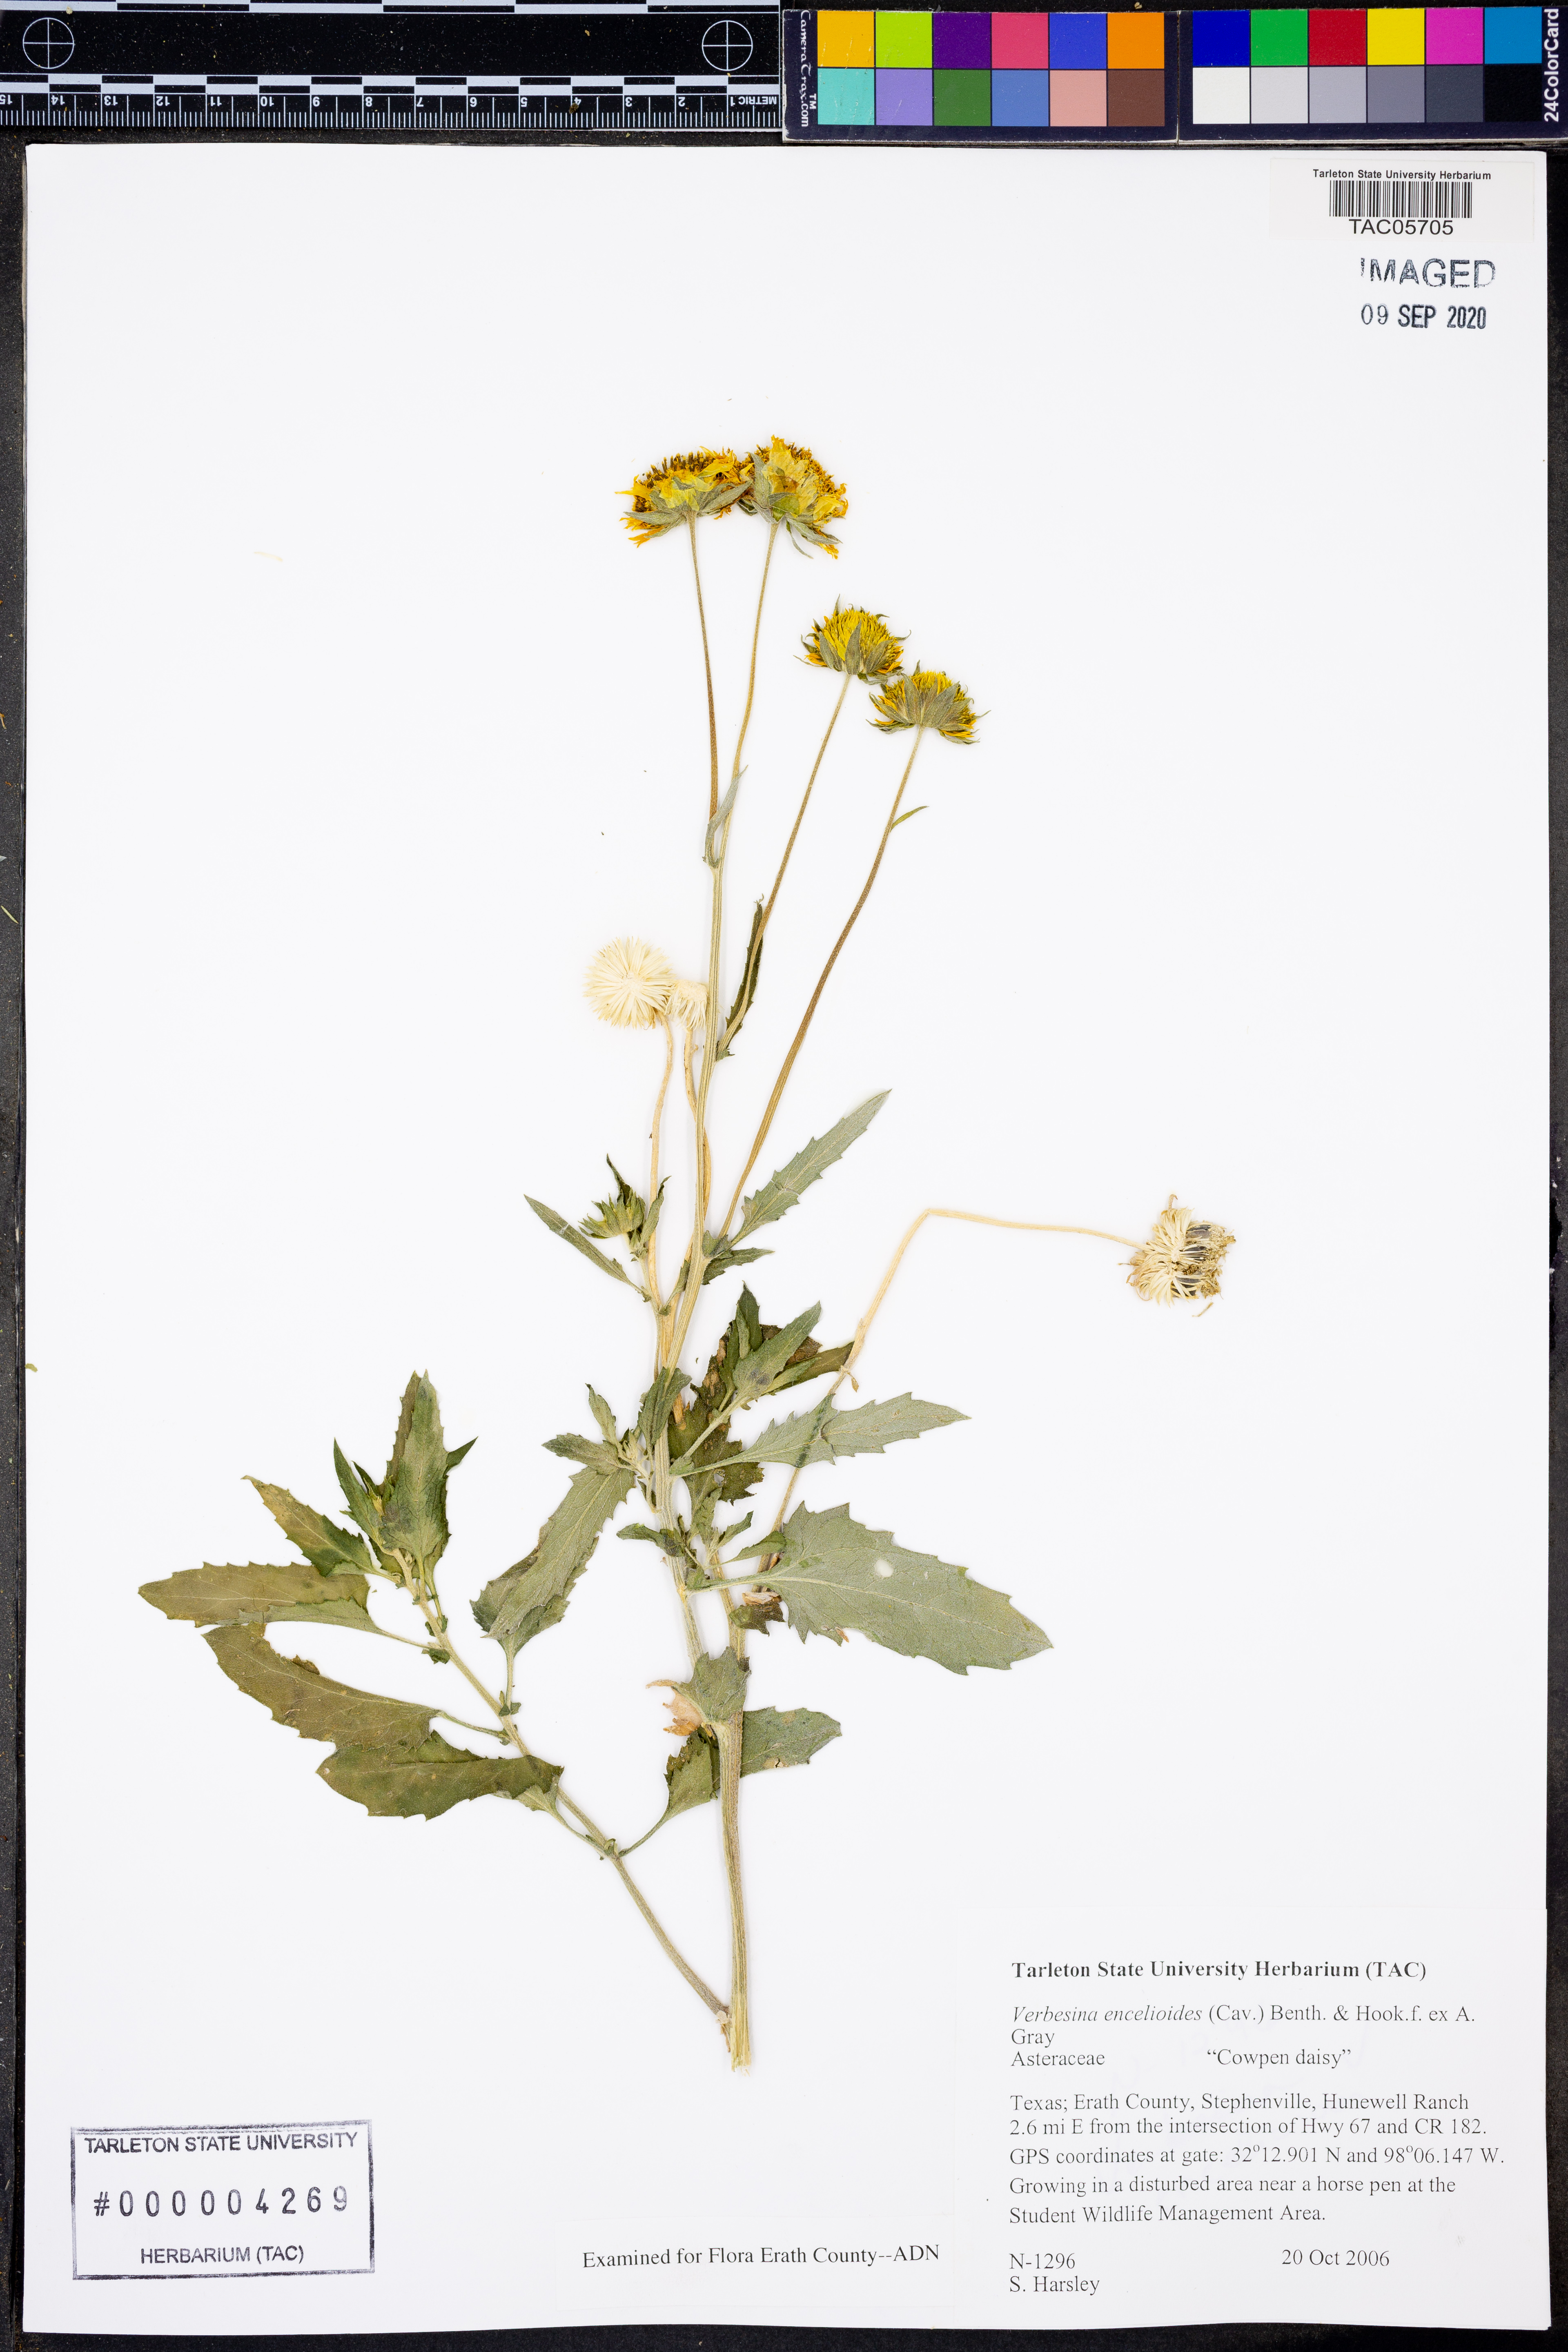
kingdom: Plantae
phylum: Tracheophyta
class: Magnoliopsida
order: Asterales
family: Asteraceae
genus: Verbesina
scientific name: Verbesina encelioides
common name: Golden crownbeard
